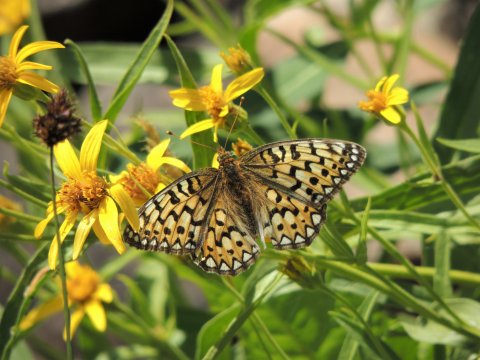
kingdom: Animalia
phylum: Arthropoda
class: Insecta
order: Lepidoptera
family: Nymphalidae
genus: Speyeria
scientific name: Speyeria callippe
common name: Callippe Fritillary
